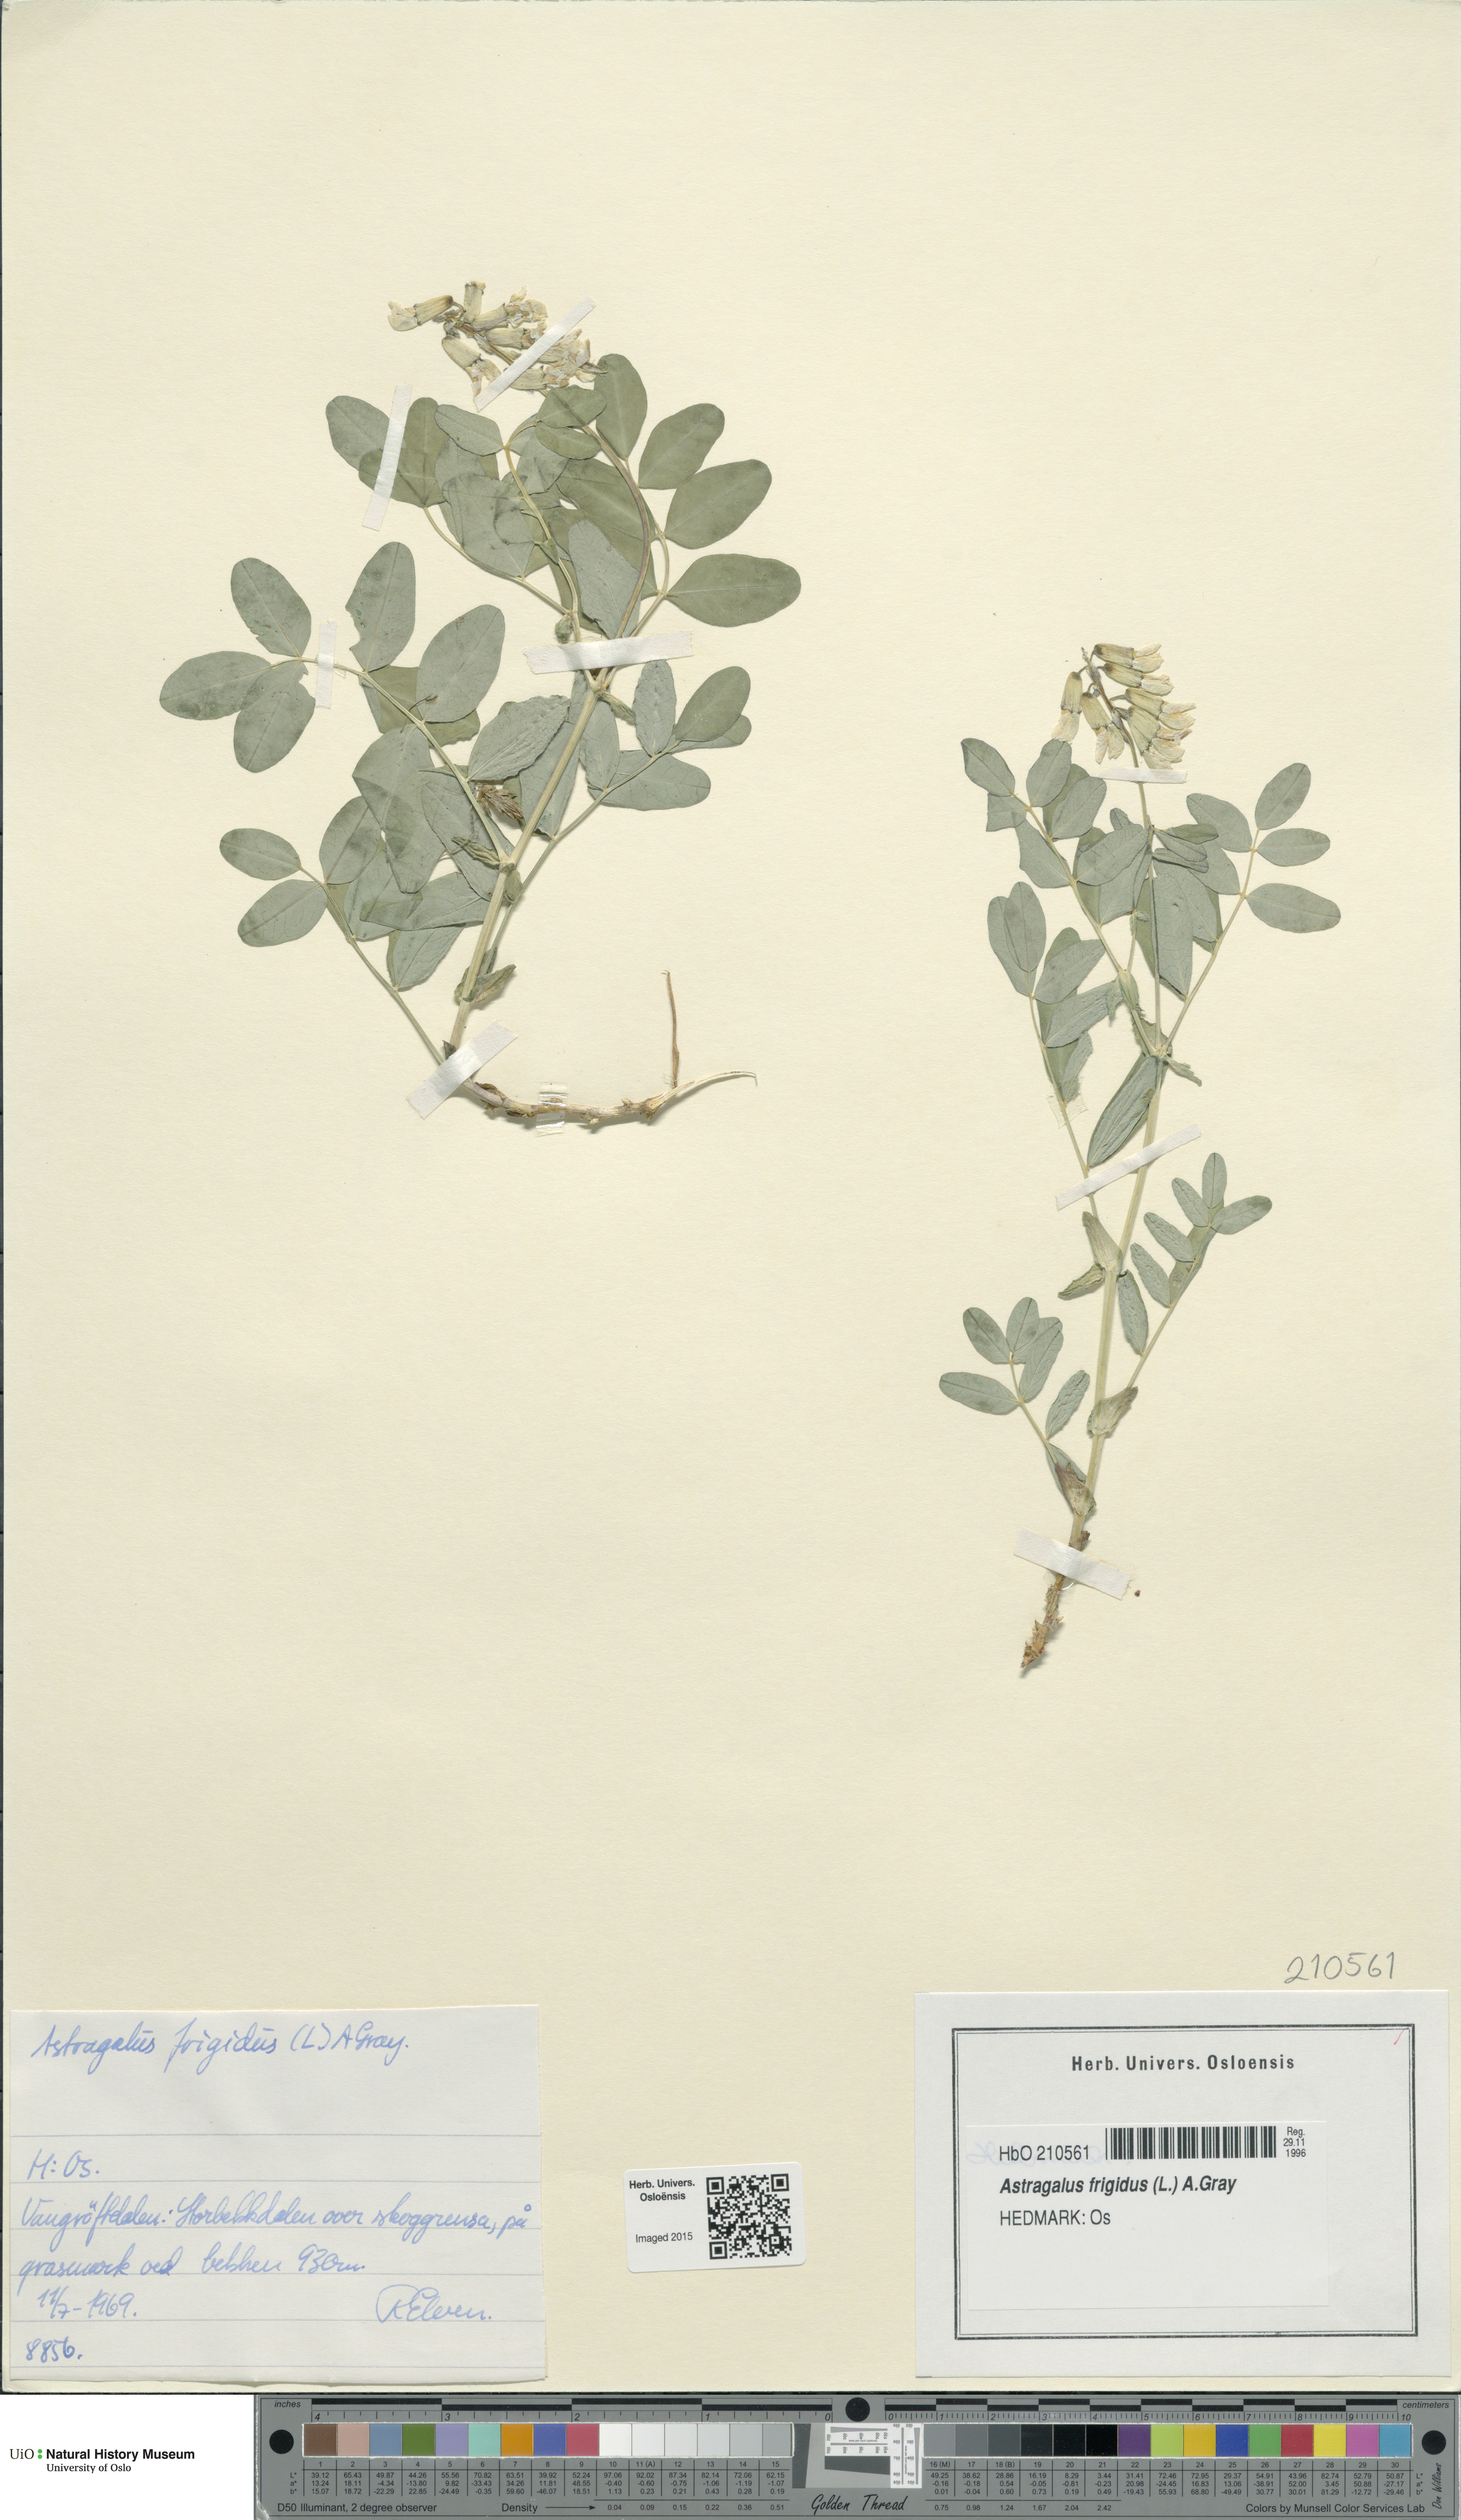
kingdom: Plantae
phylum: Tracheophyta
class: Magnoliopsida
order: Fabales
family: Fabaceae
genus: Astragalus
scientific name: Astragalus frigidus
